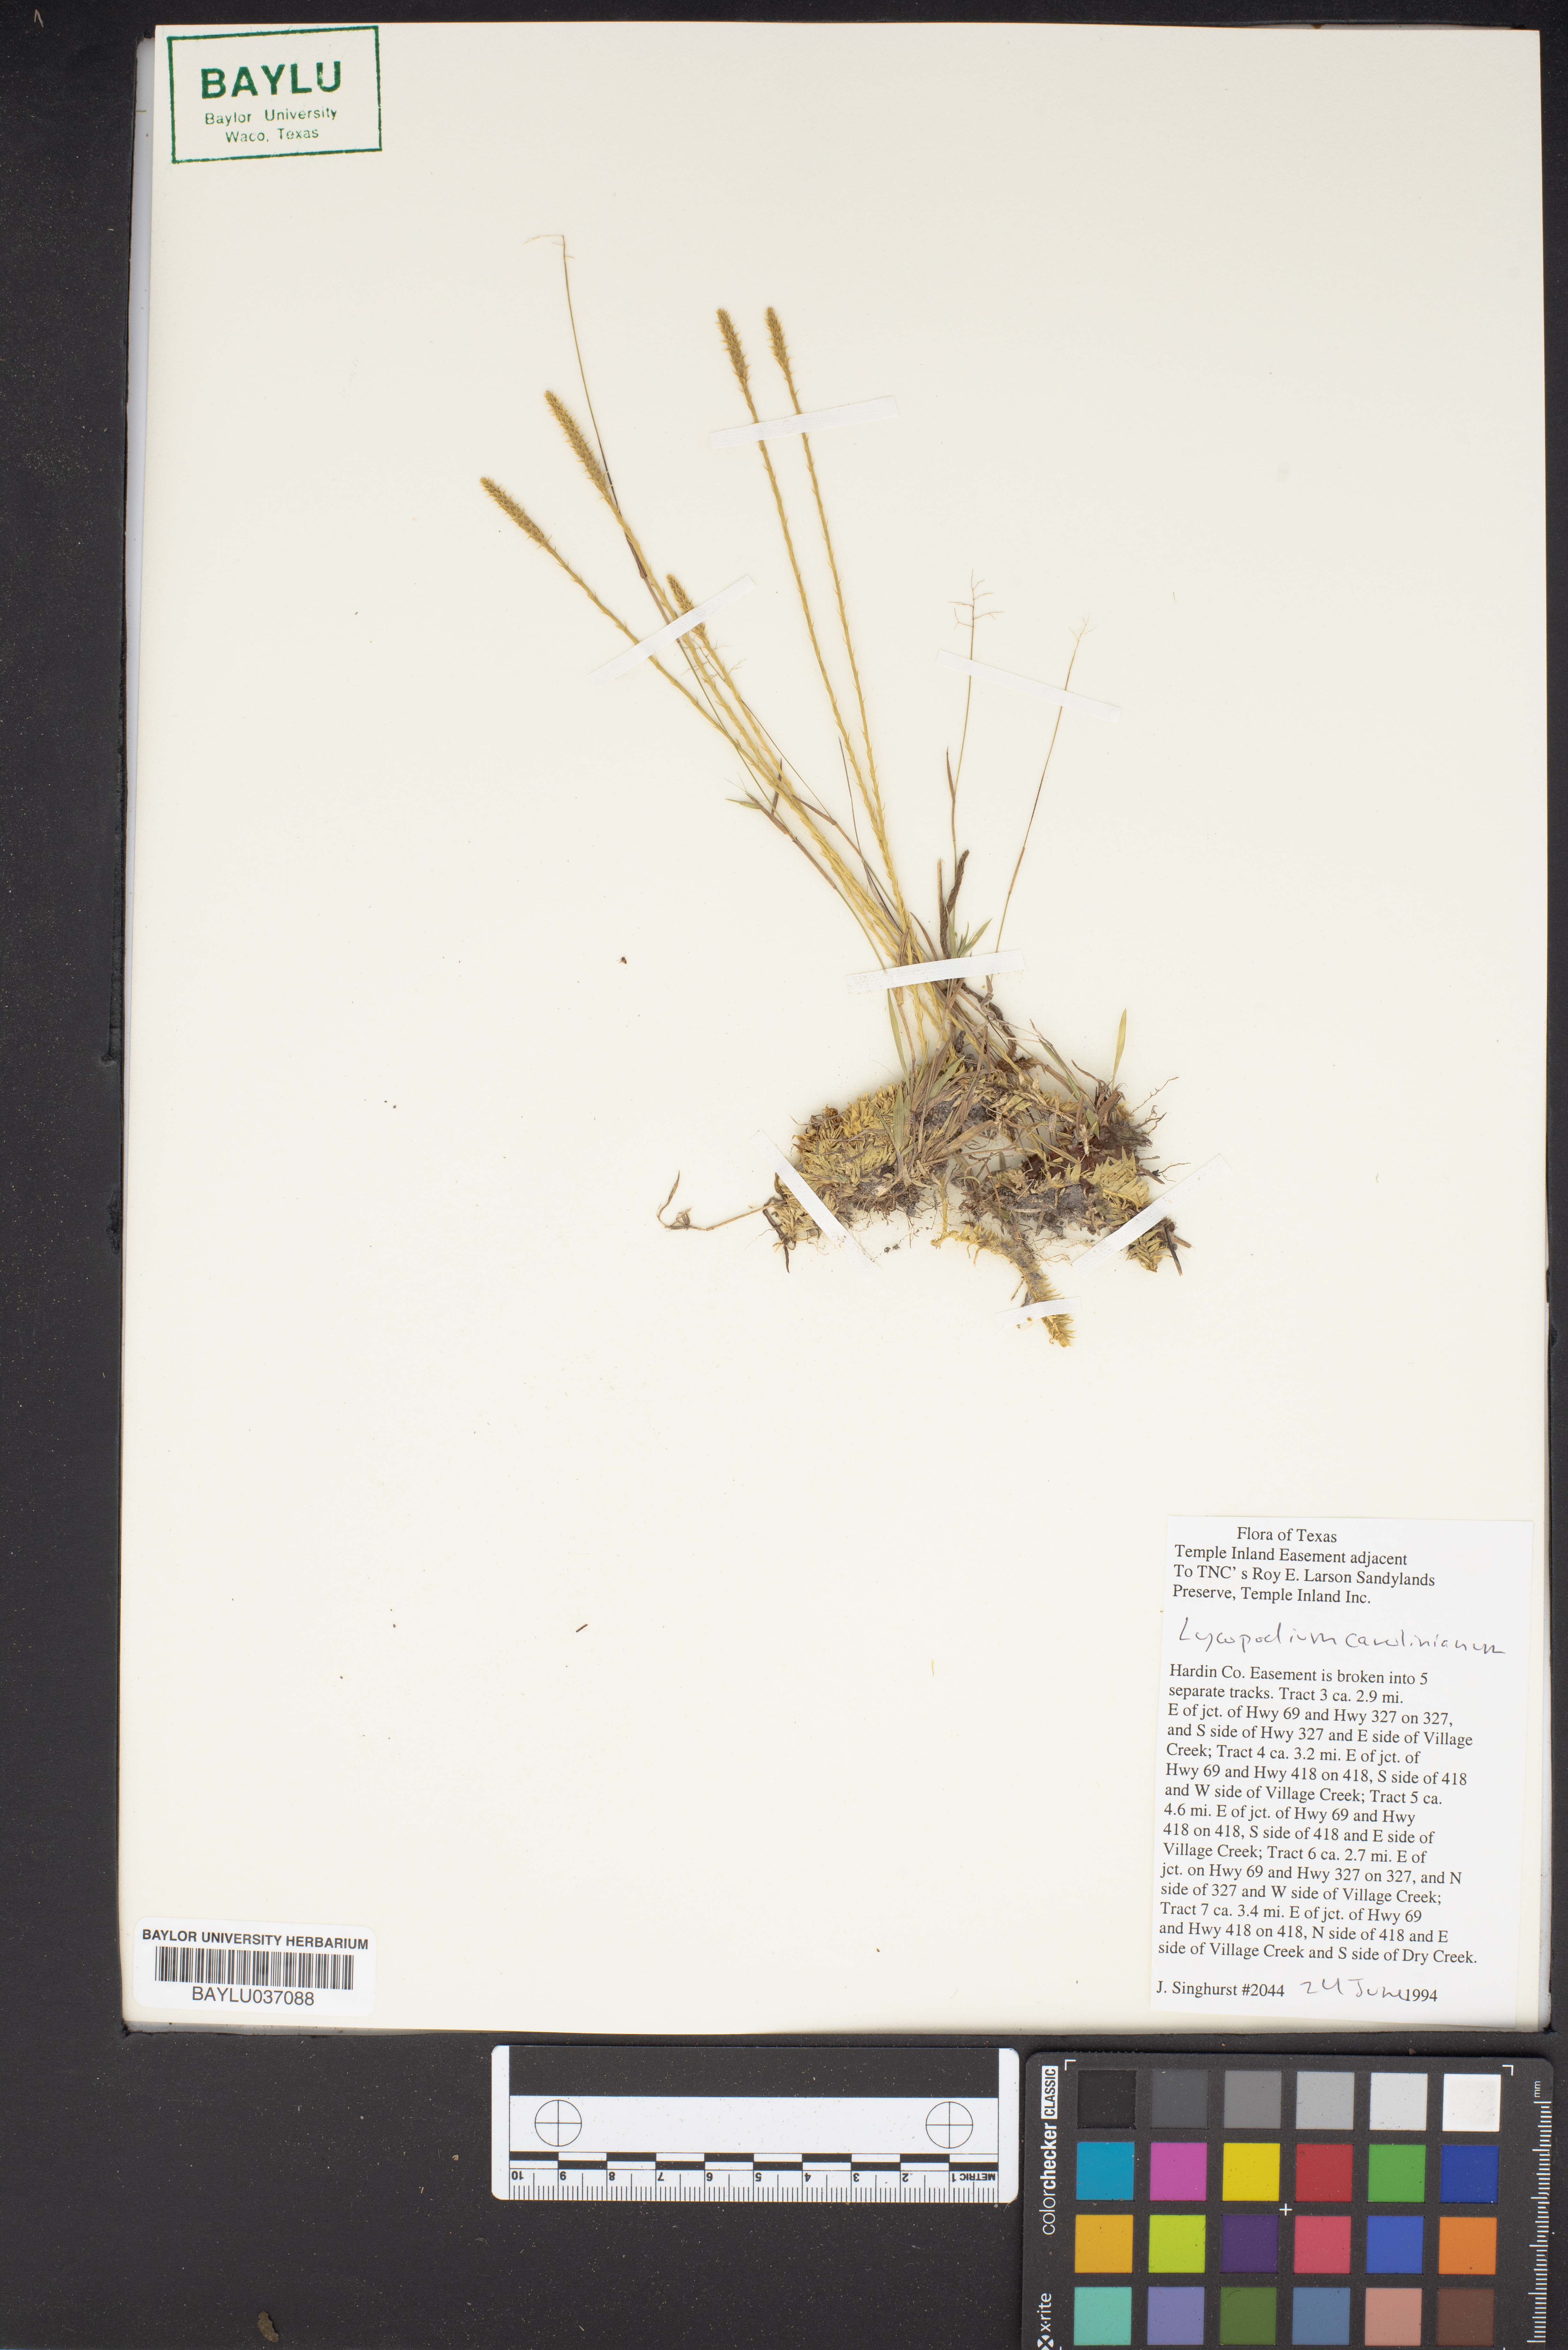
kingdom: Plantae
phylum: Tracheophyta
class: Lycopodiopsida
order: Lycopodiales
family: Lycopodiaceae
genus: Pseudolycopodiella
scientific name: Pseudolycopodiella caroliniana
